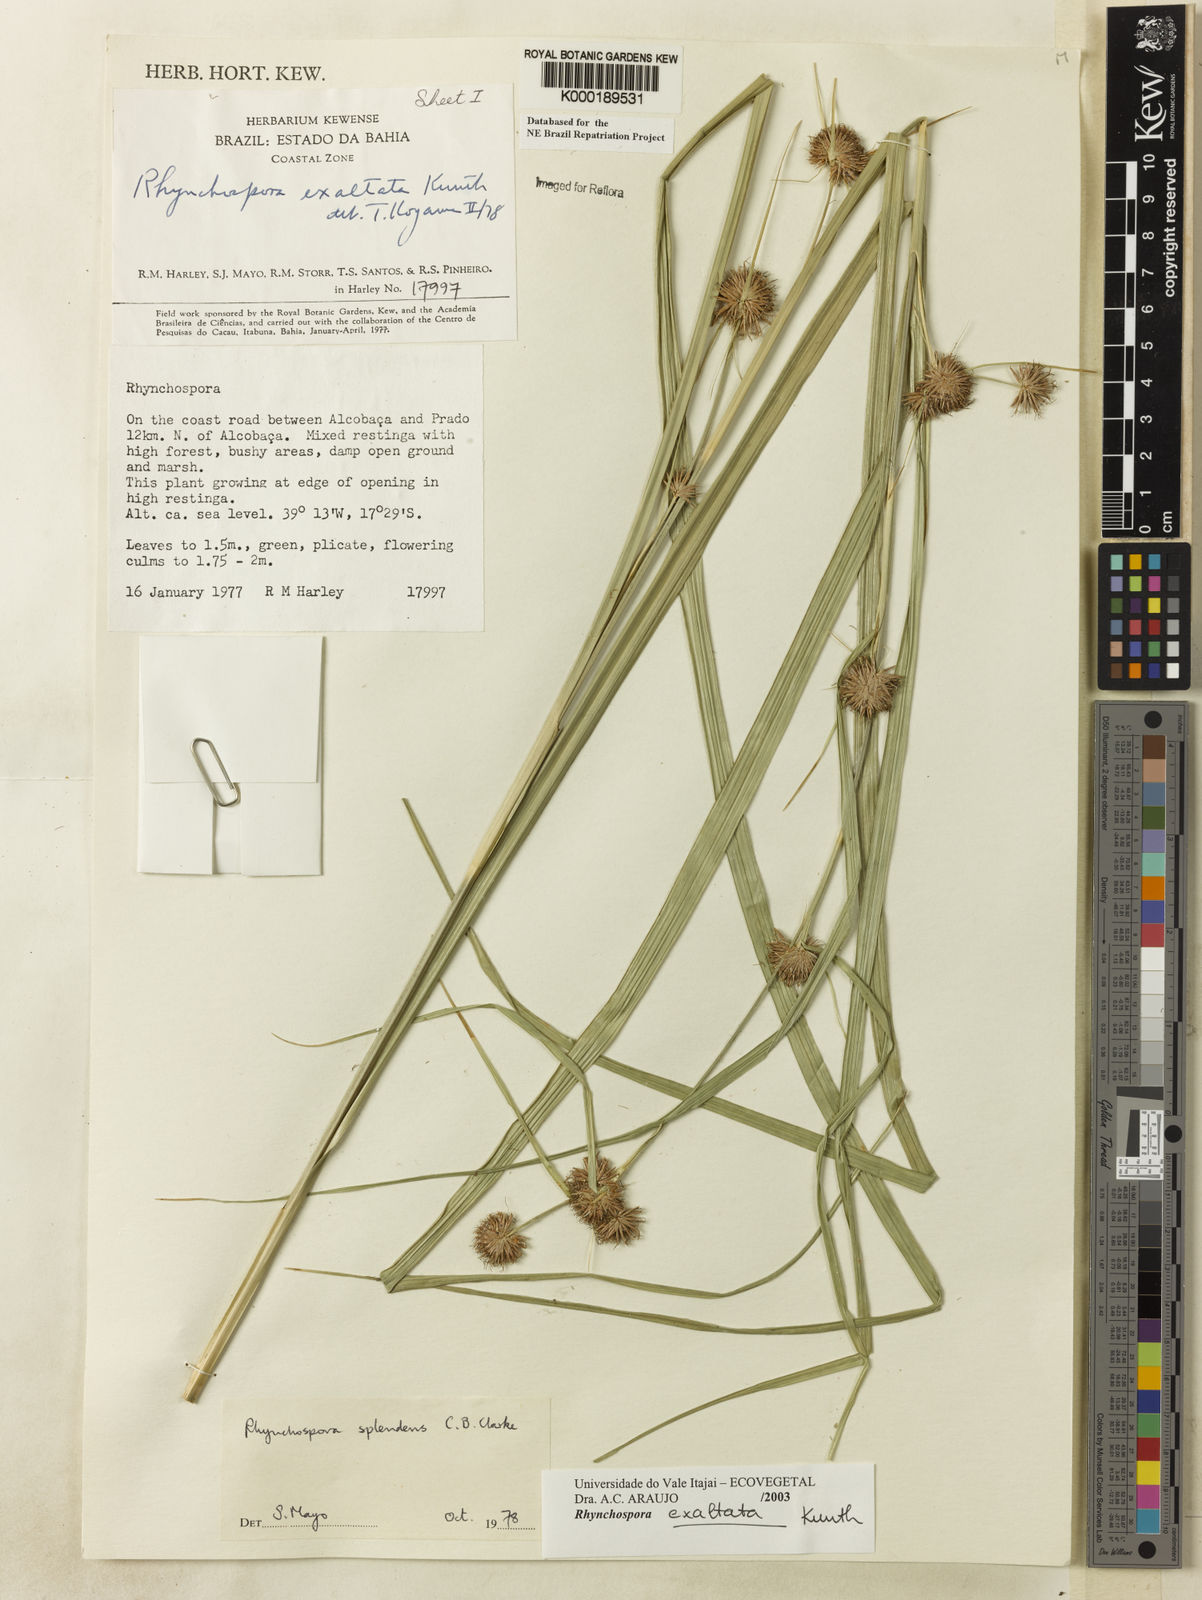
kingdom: Plantae
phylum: Tracheophyta
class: Liliopsida
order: Poales
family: Cyperaceae
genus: Rhynchospora
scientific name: Rhynchospora exaltata
